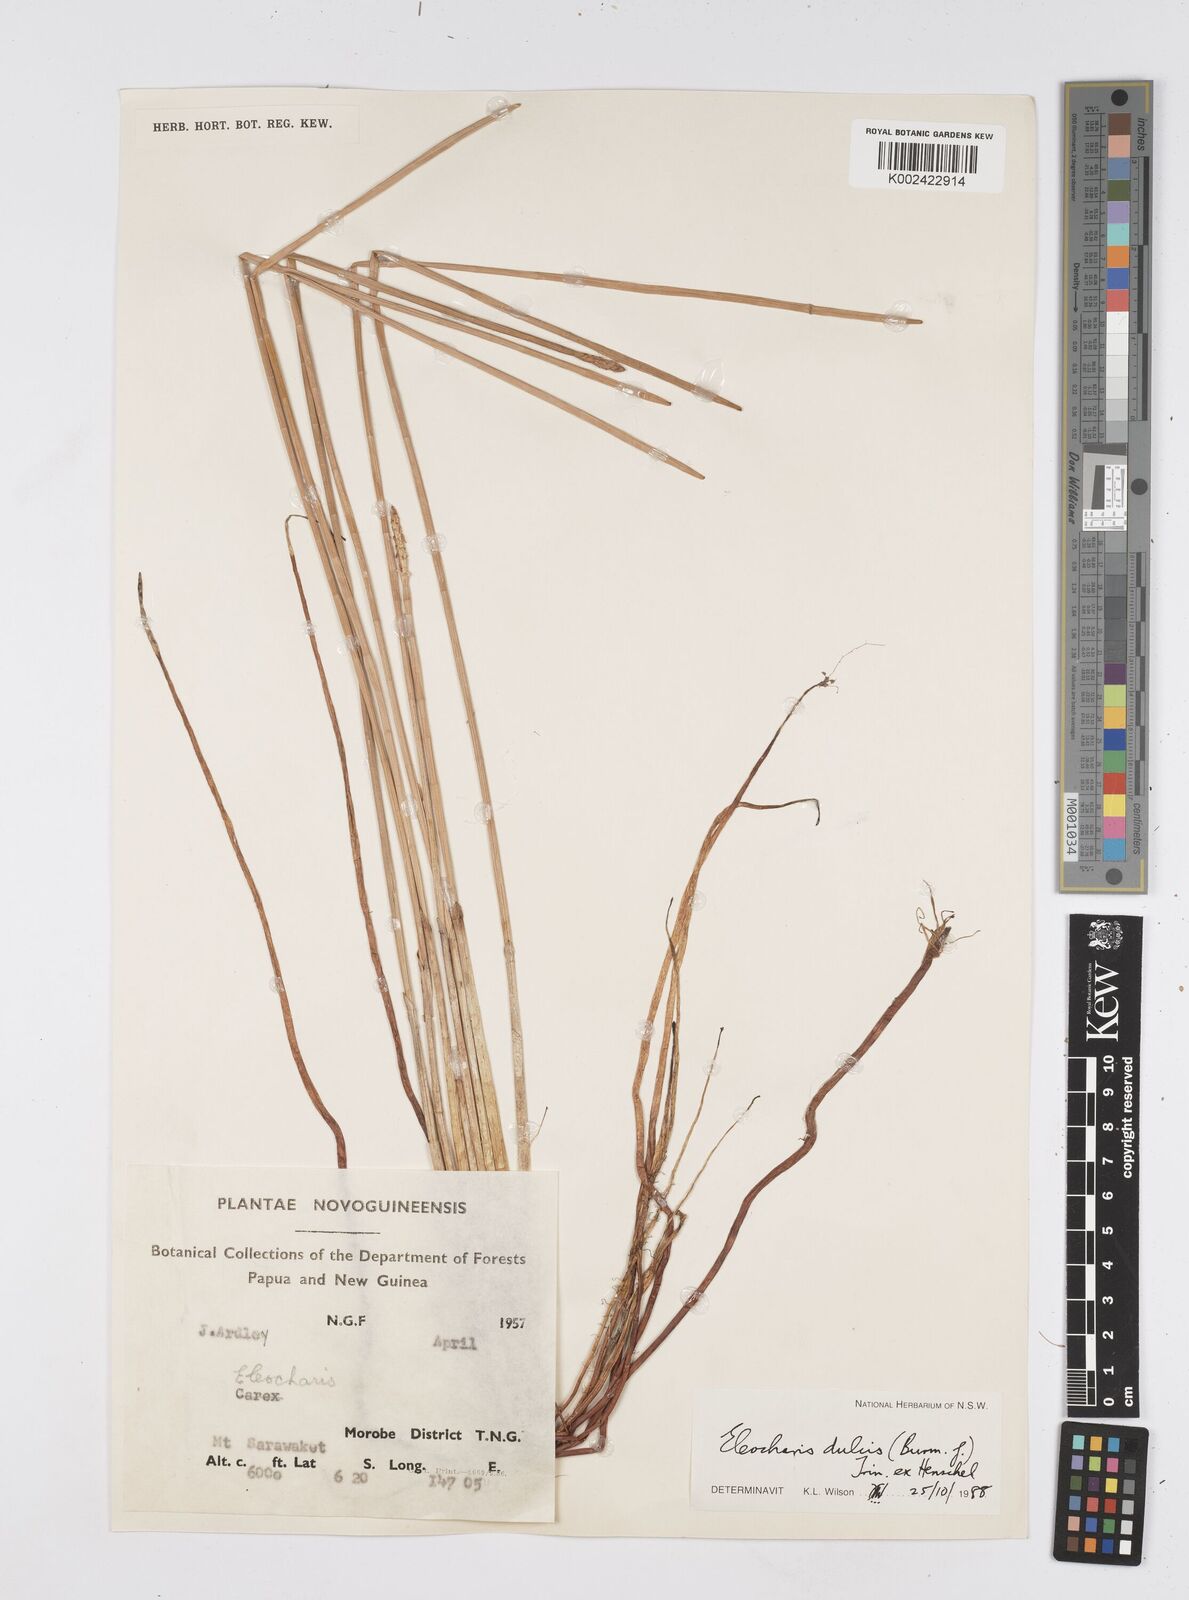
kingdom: Plantae
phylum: Tracheophyta
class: Liliopsida
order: Poales
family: Cyperaceae
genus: Eleocharis
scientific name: Eleocharis dulcis
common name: Chinese water chestnut
